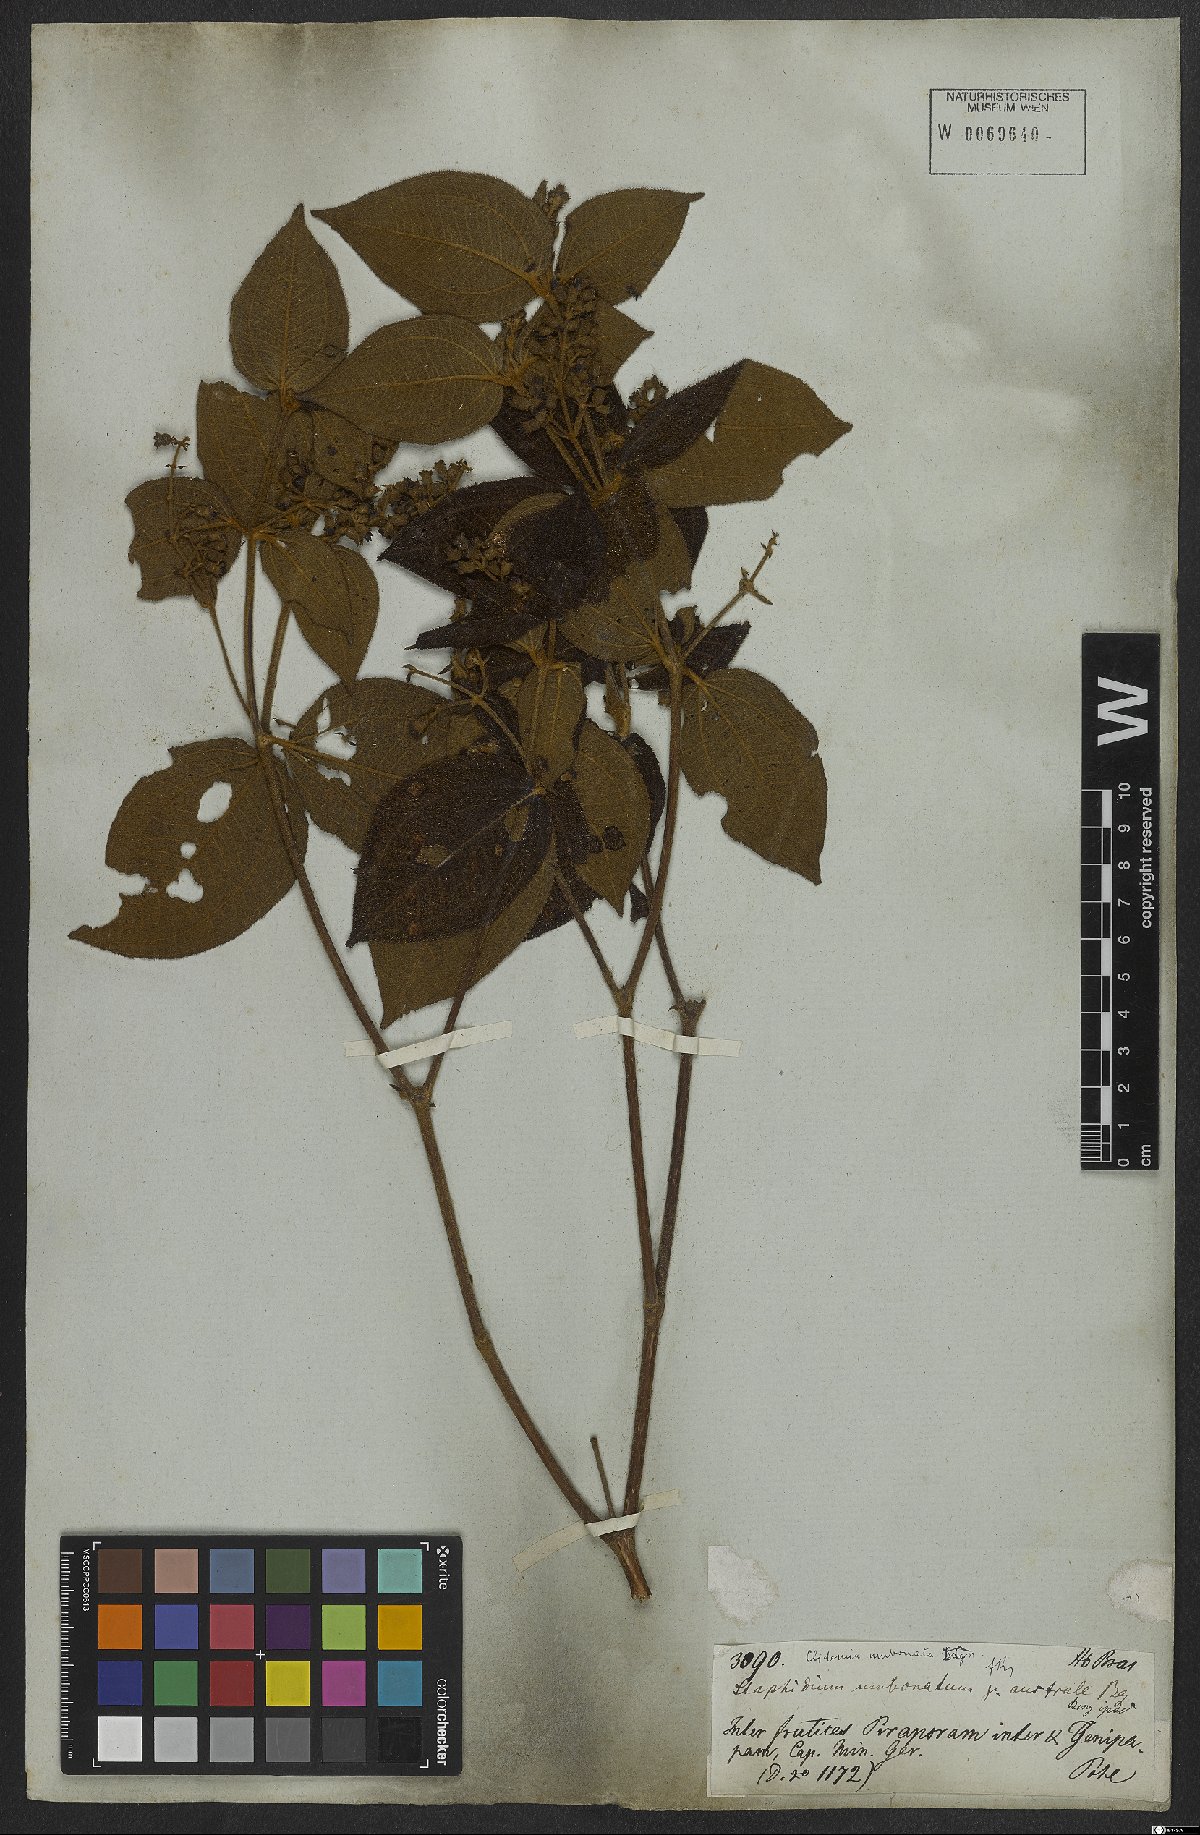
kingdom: Plantae
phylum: Tracheophyta
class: Magnoliopsida
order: Myrtales
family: Melastomataceae
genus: Miconia
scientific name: Miconia strigillosa
